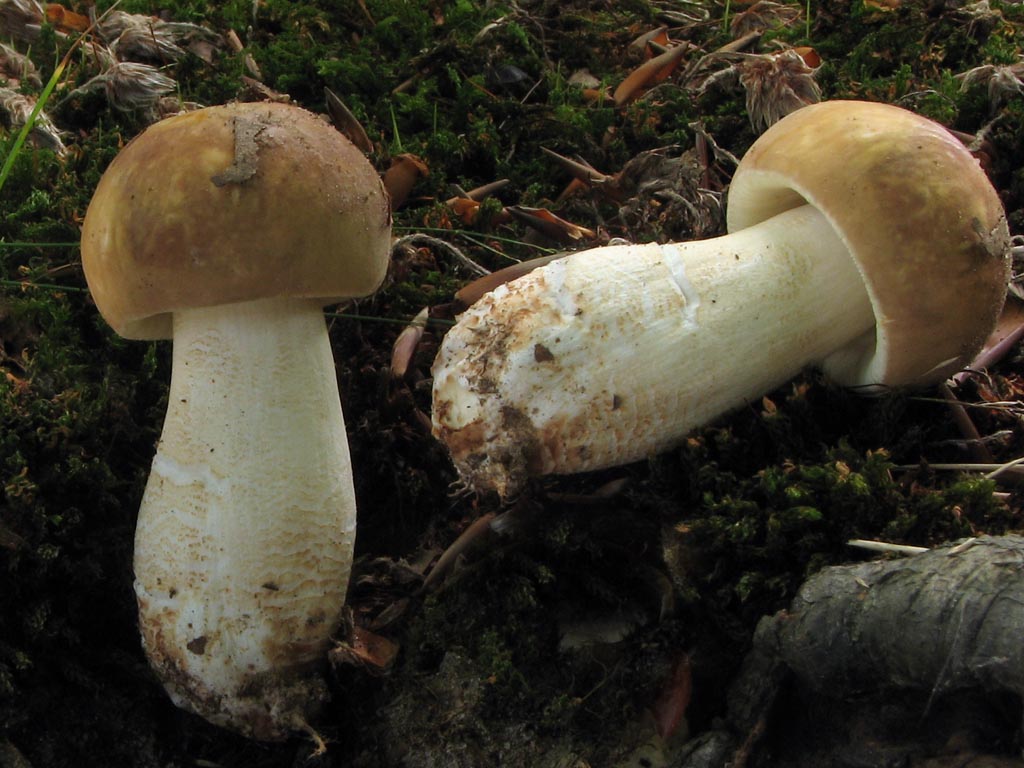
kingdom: Fungi
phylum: Basidiomycota
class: Agaricomycetes
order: Russulales
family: Russulaceae
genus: Russula
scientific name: Russula faginea
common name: bøge-skørhat
